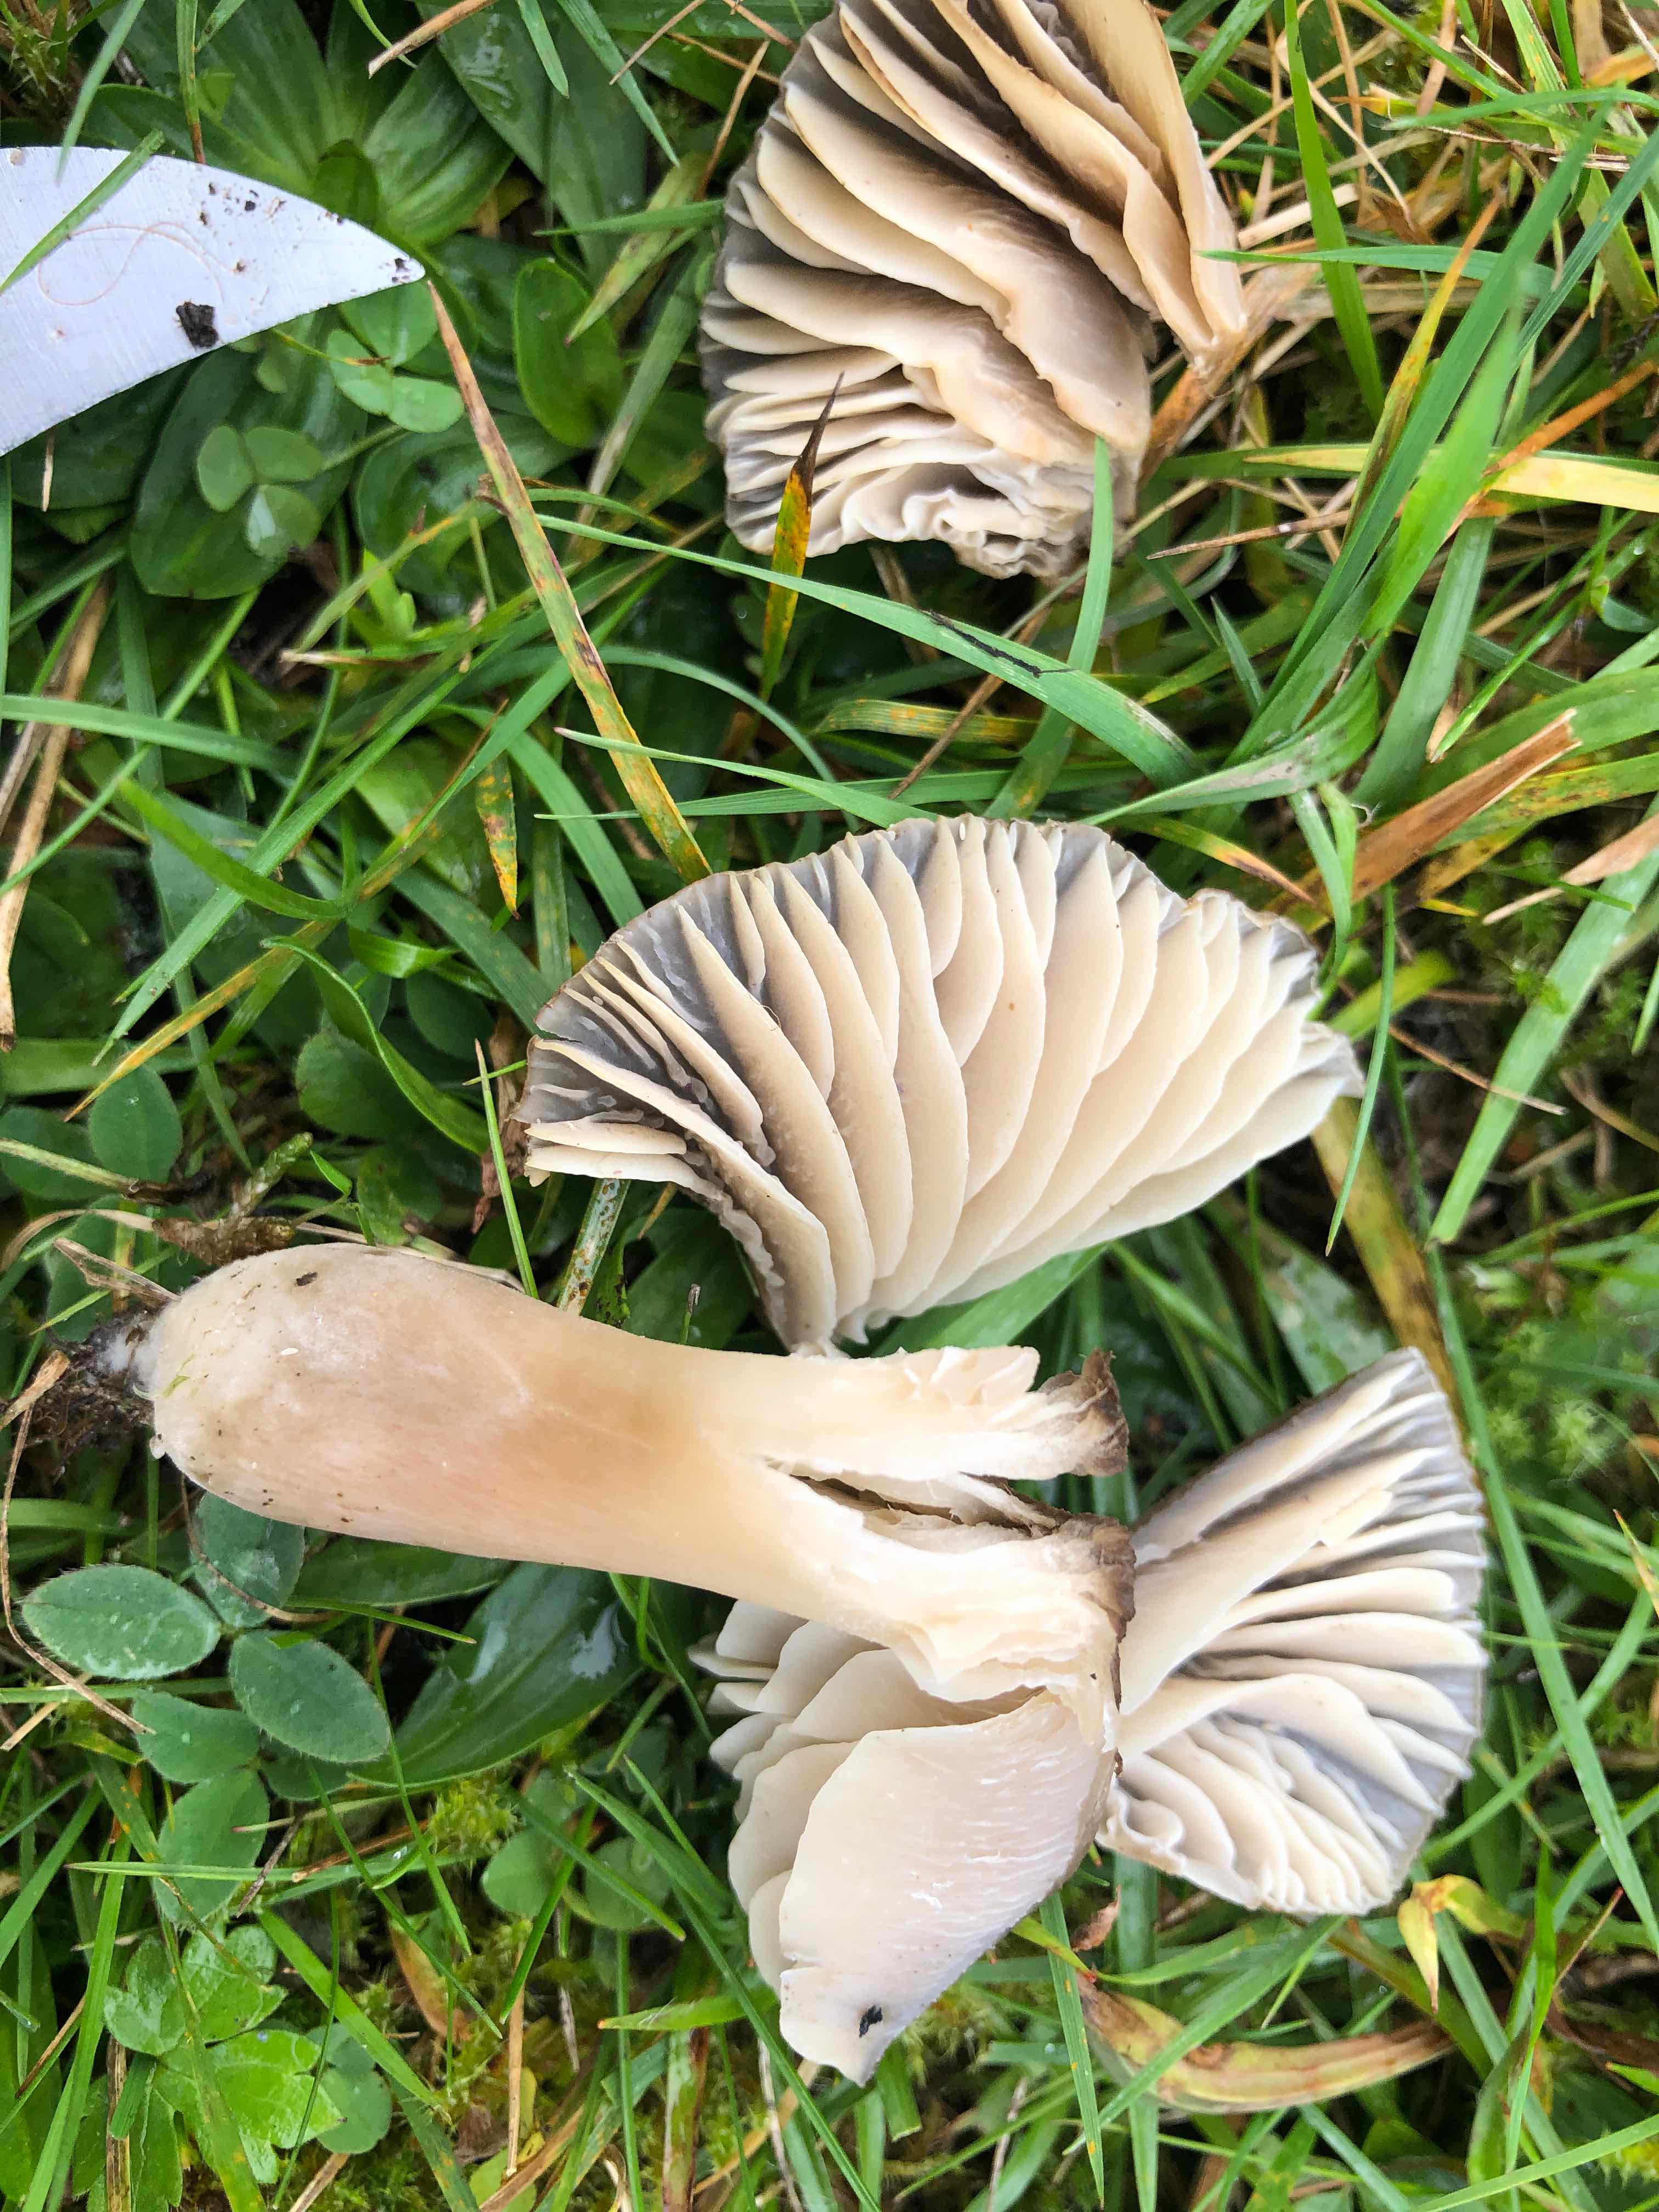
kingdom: Fungi
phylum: Basidiomycota
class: Agaricomycetes
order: Agaricales
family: Hygrophoraceae
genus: Neohygrocybe
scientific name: Neohygrocybe nitrata
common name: stinkende vokshat
